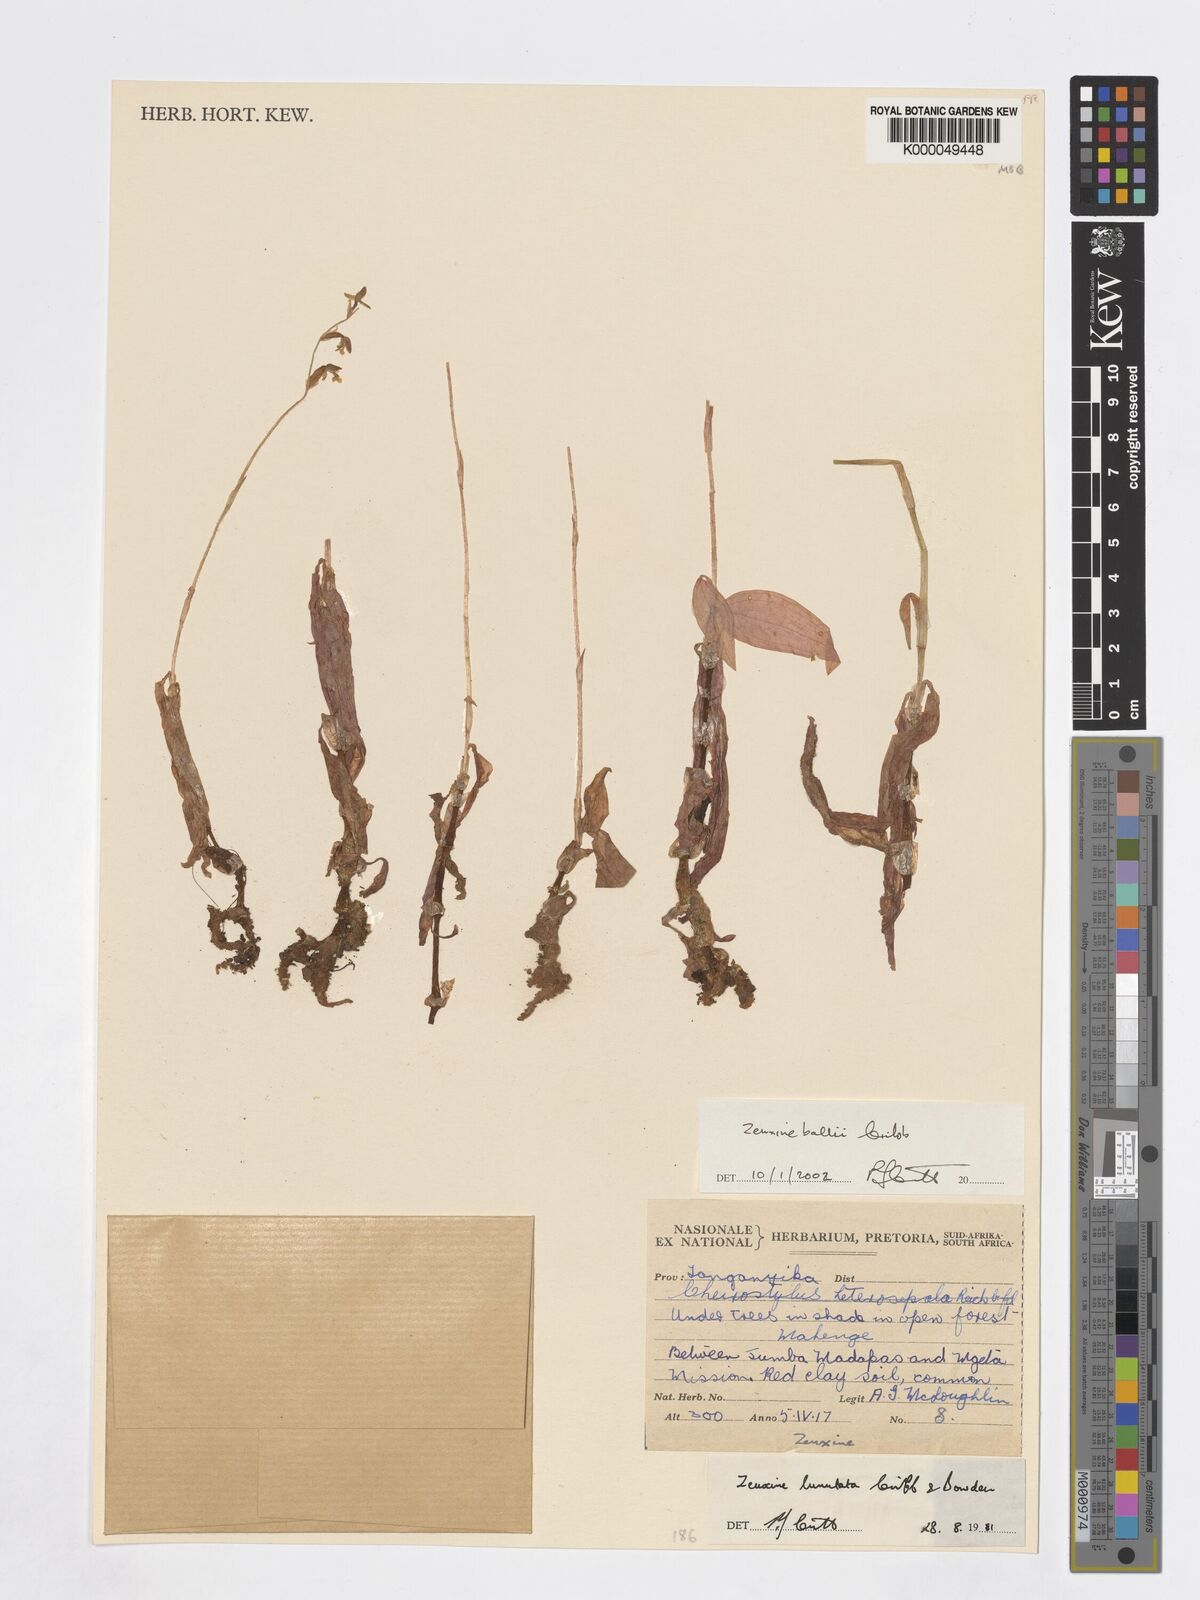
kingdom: Plantae
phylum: Tracheophyta
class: Liliopsida
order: Asparagales
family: Orchidaceae
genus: Zeuxine
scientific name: Zeuxine ballii
